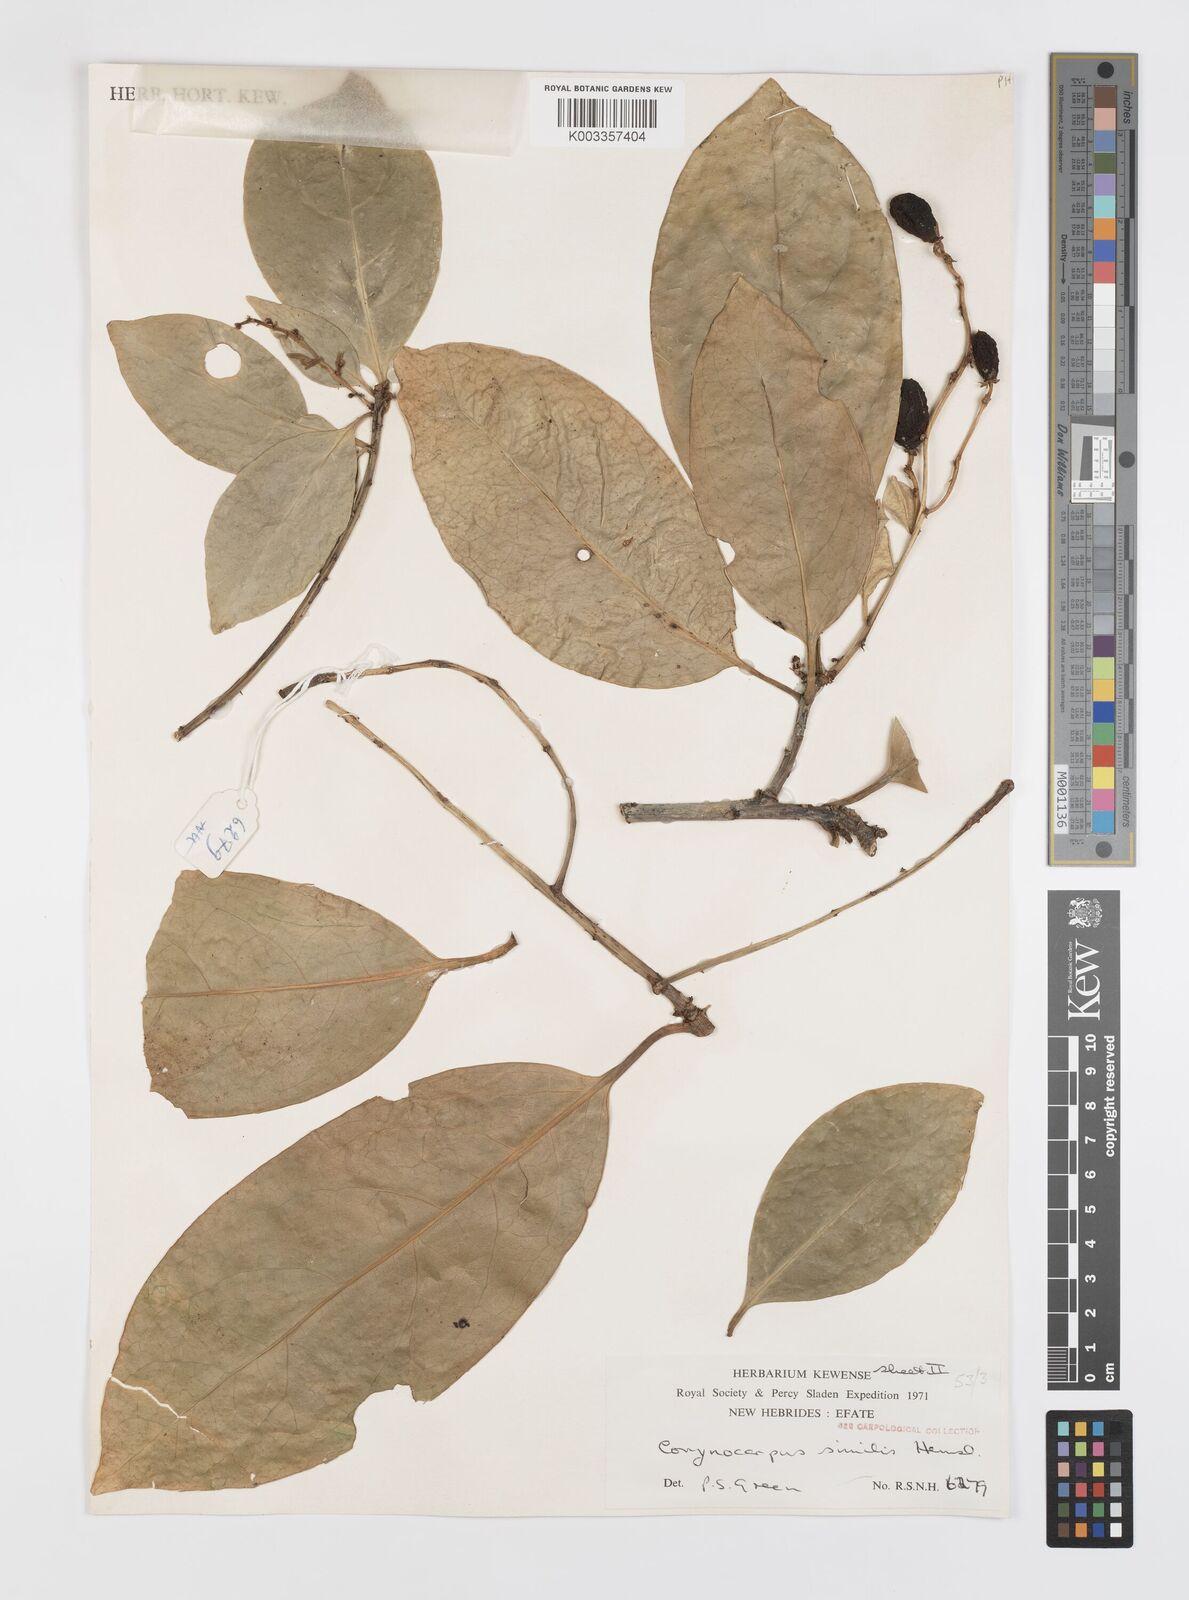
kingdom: Plantae
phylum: Tracheophyta
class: Magnoliopsida
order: Cucurbitales
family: Corynocarpaceae
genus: Corynocarpus
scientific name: Corynocarpus similis
